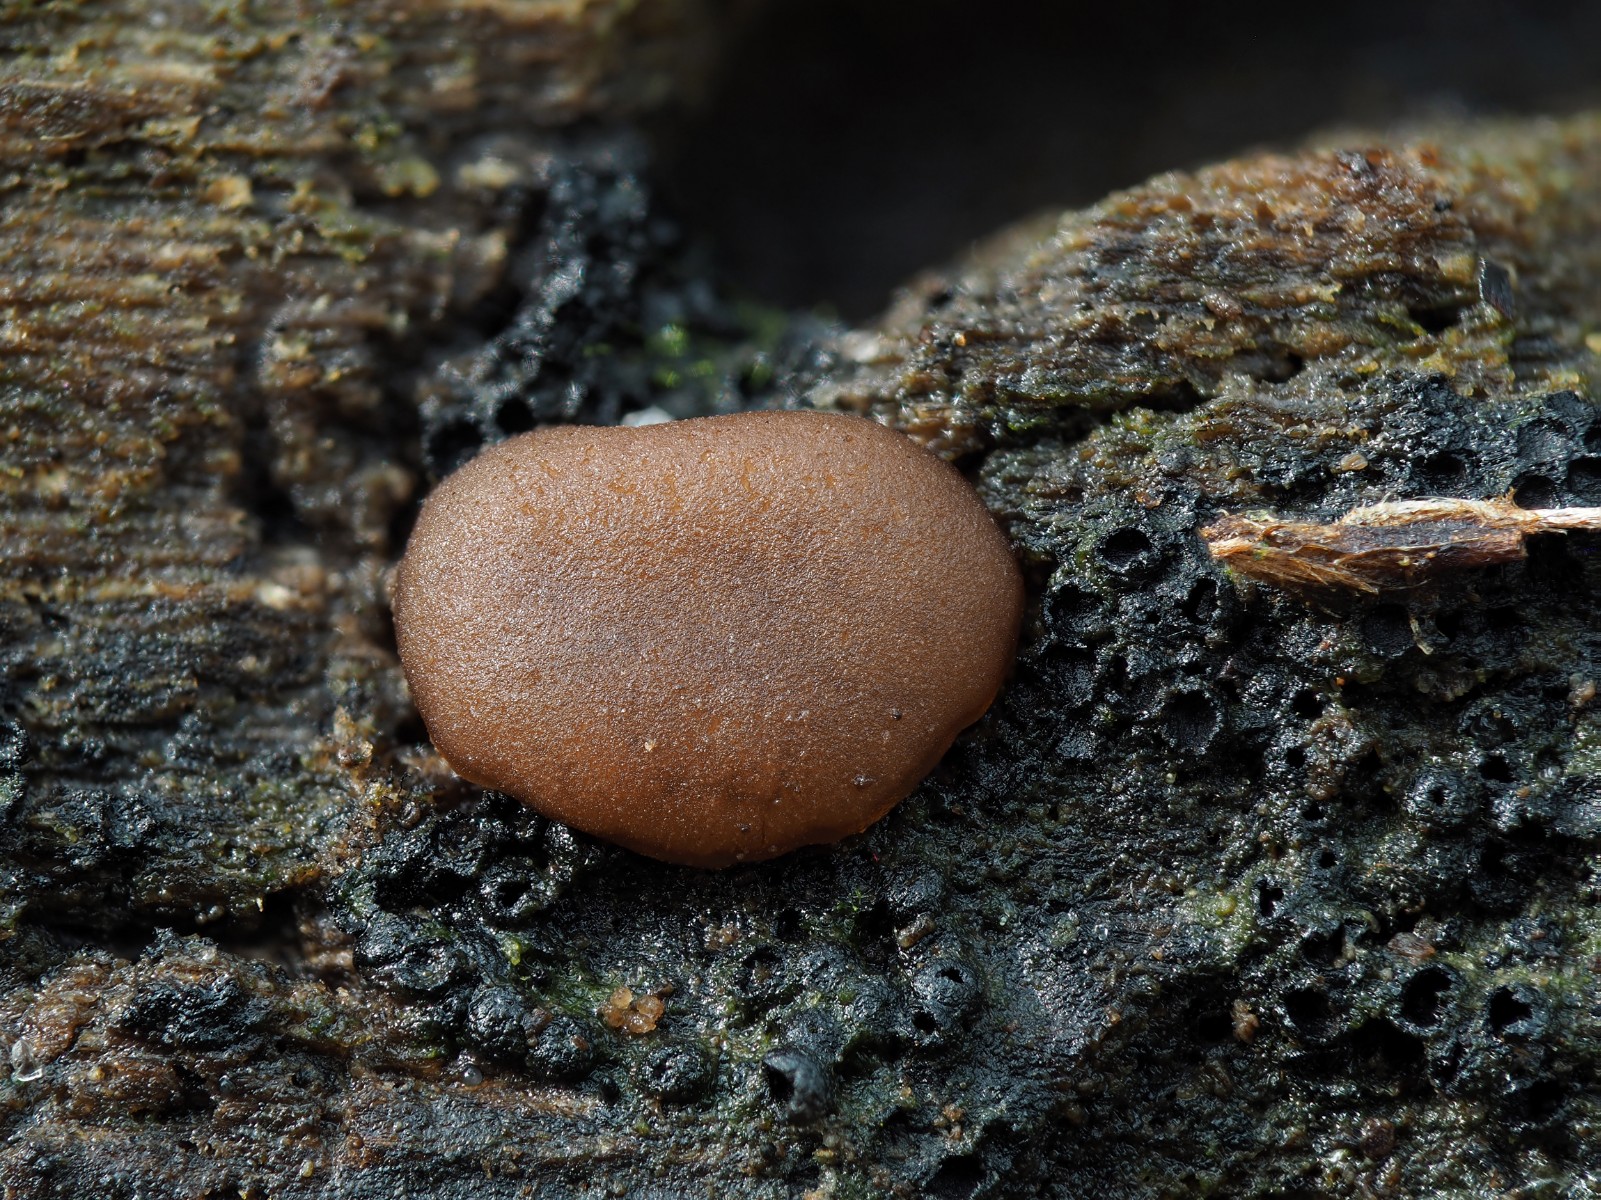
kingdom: Fungi
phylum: Ascomycota
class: Pezizomycetes
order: Pezizales
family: Pezizaceae
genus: Adelphella
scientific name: Adelphella babingtonii
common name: almindelig bækbæger
